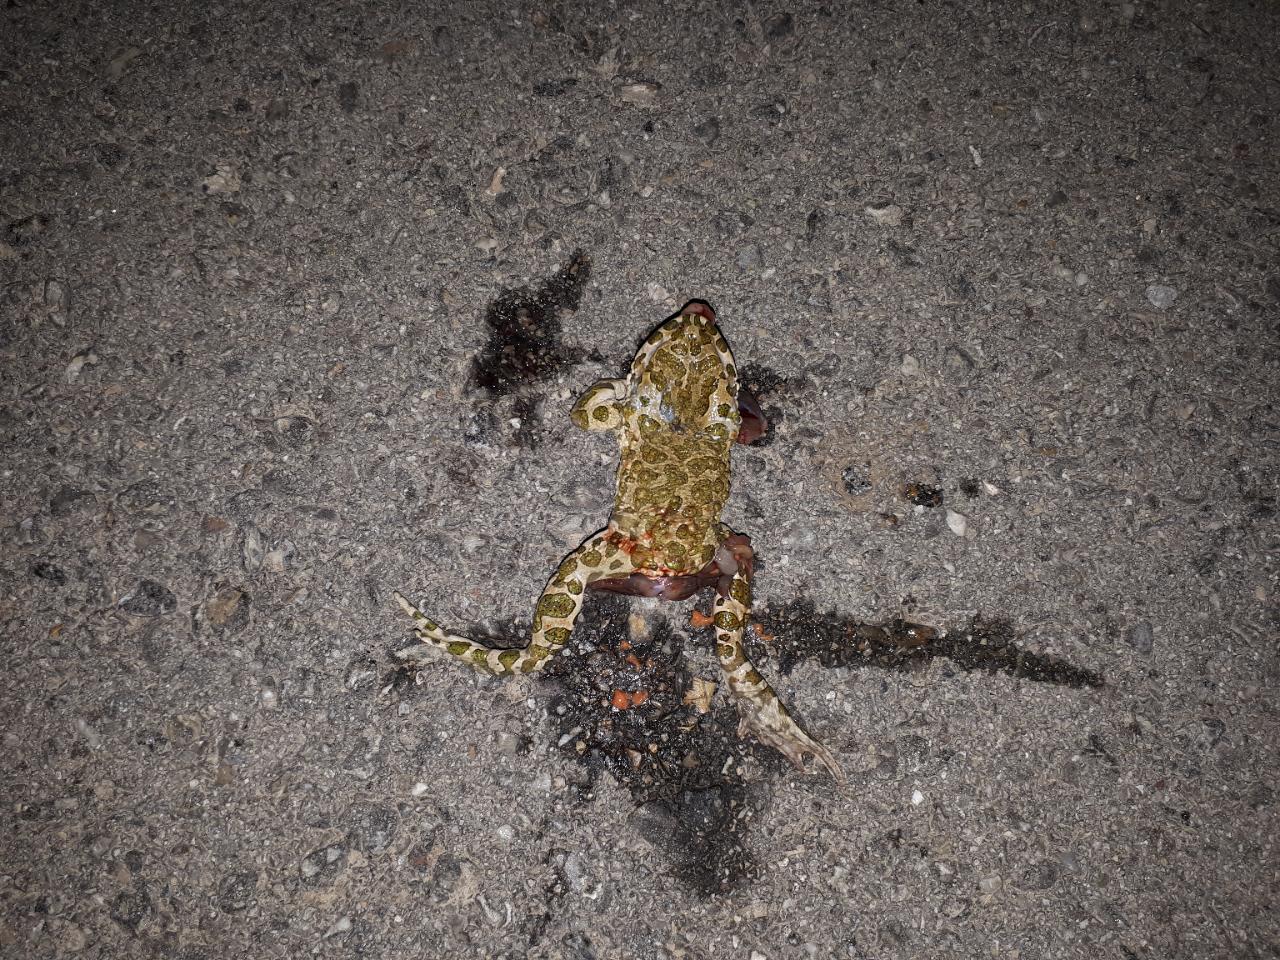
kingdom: Animalia
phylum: Chordata
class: Amphibia
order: Anura
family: Bufonidae
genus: Bufotes
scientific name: Bufotes viridis
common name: European green toad
